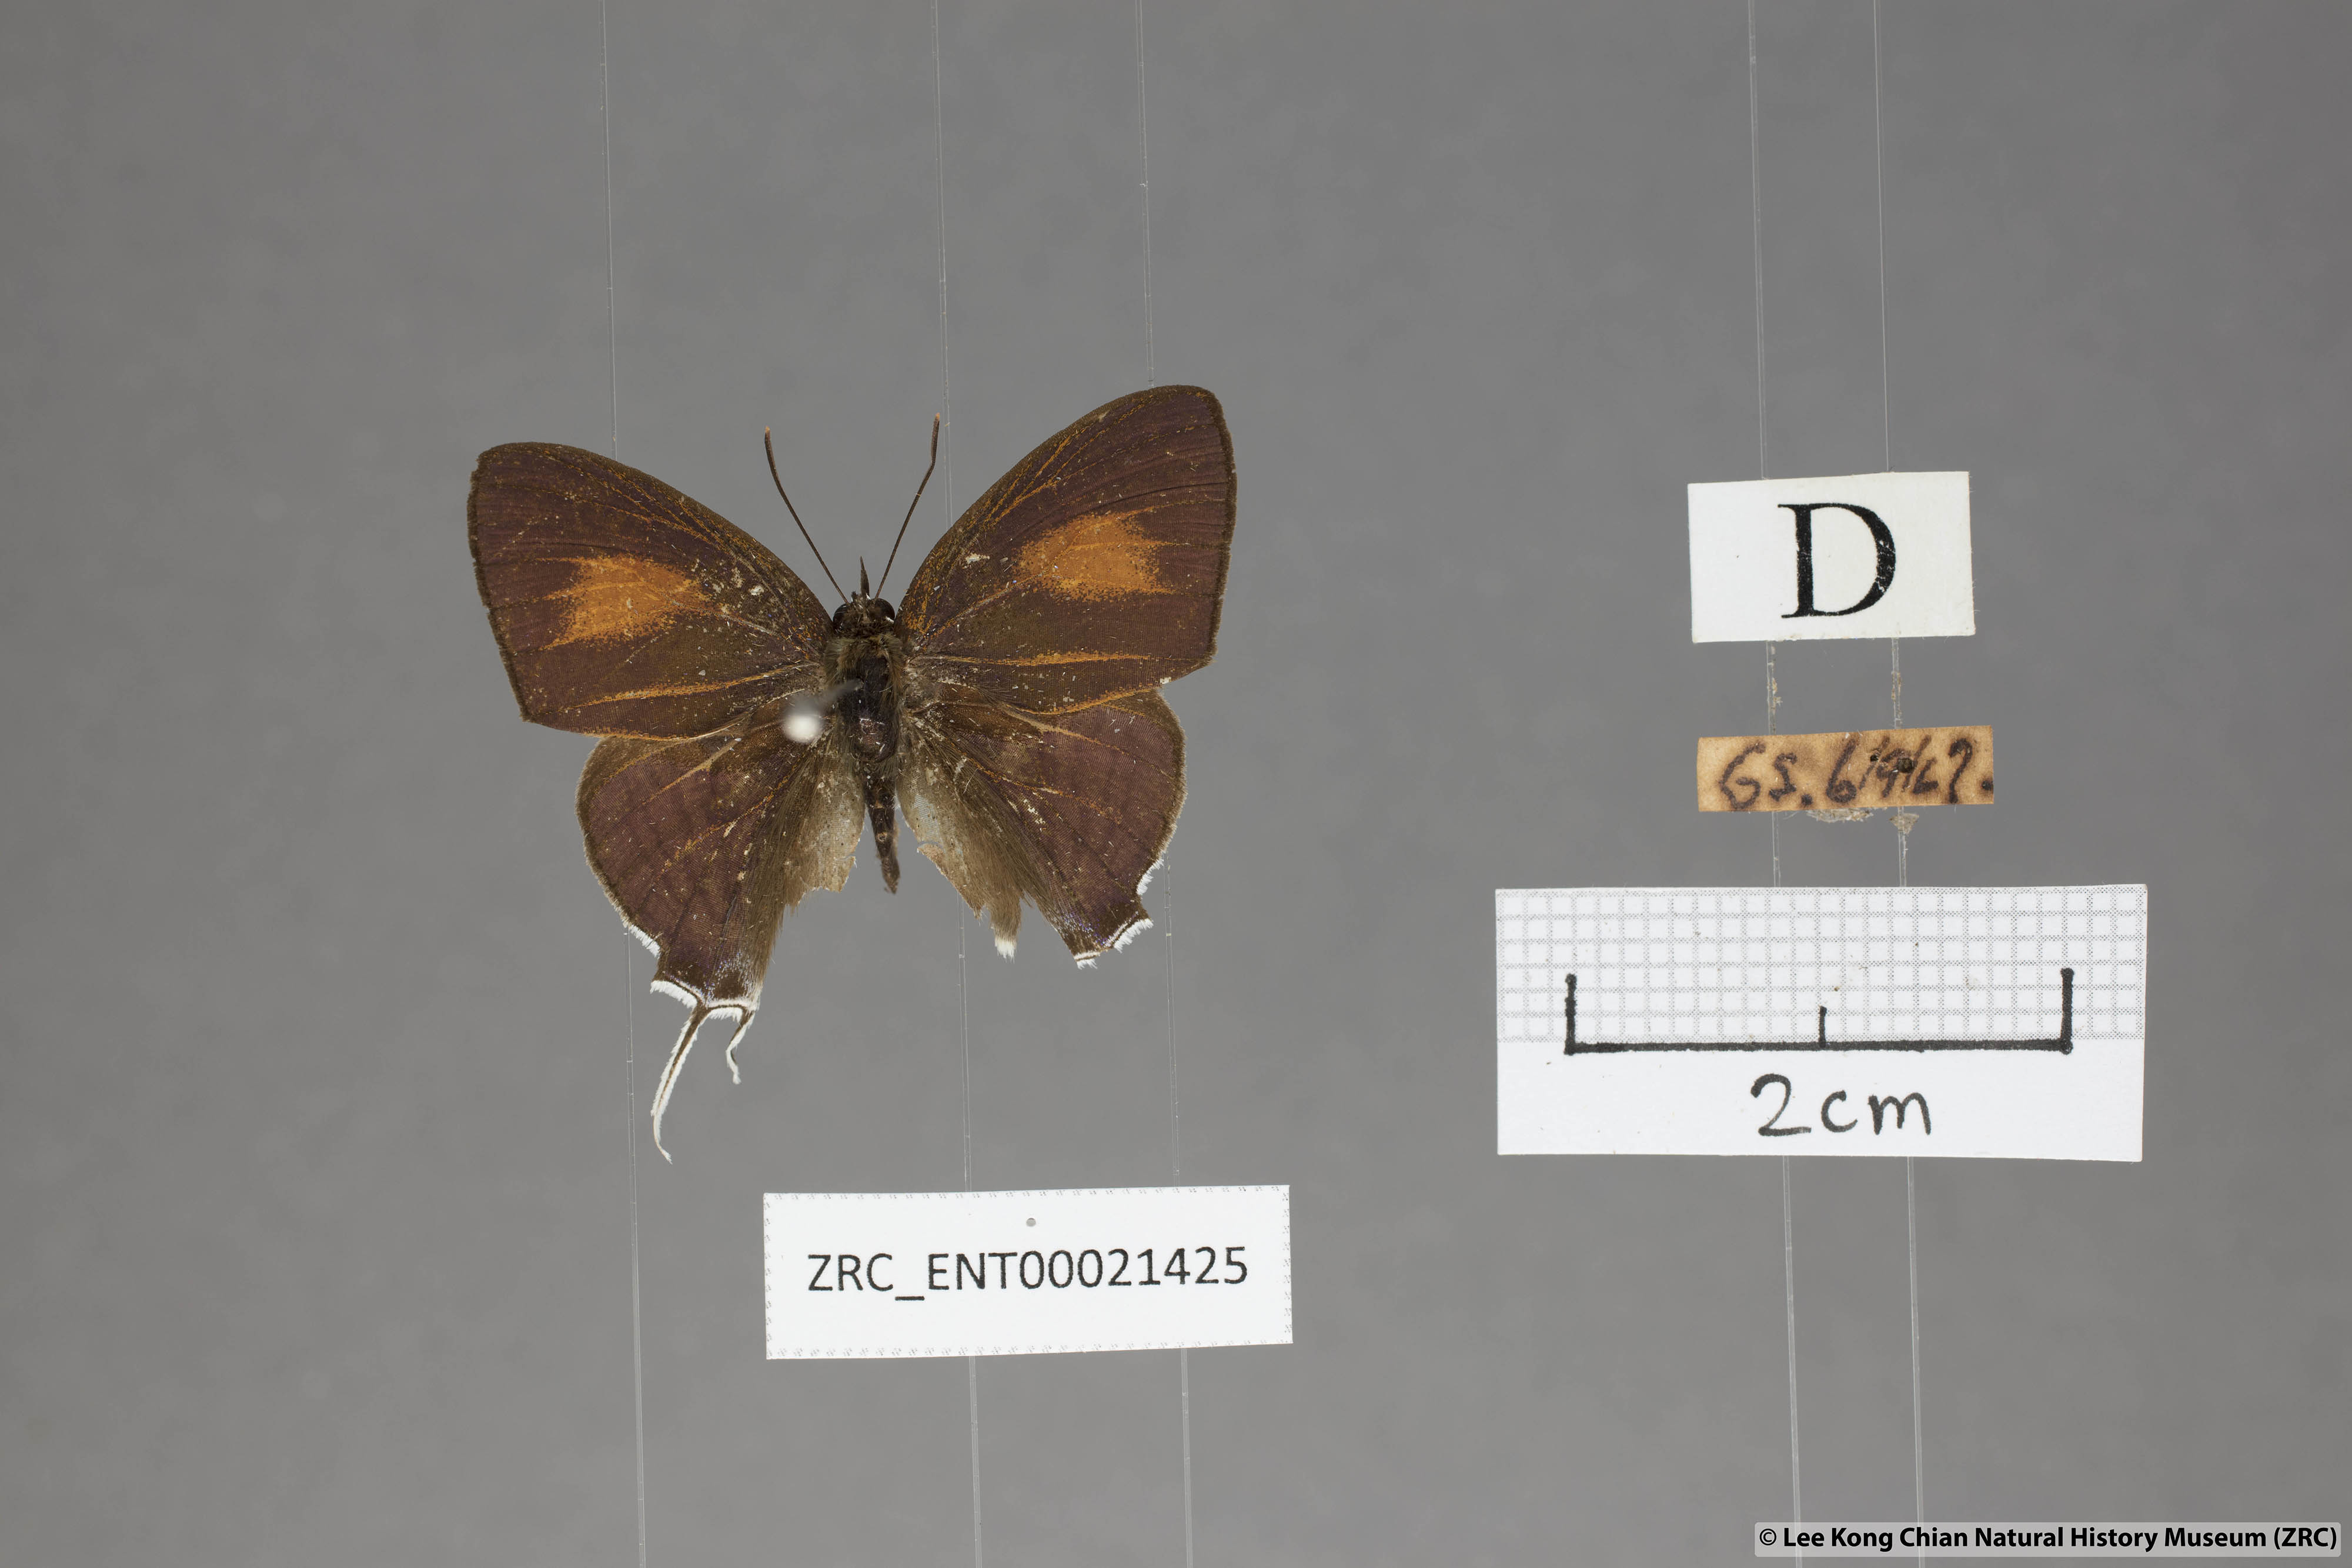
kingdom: Animalia
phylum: Arthropoda
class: Insecta
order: Lepidoptera
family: Lycaenidae
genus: Drupadia
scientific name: Drupadia theda
